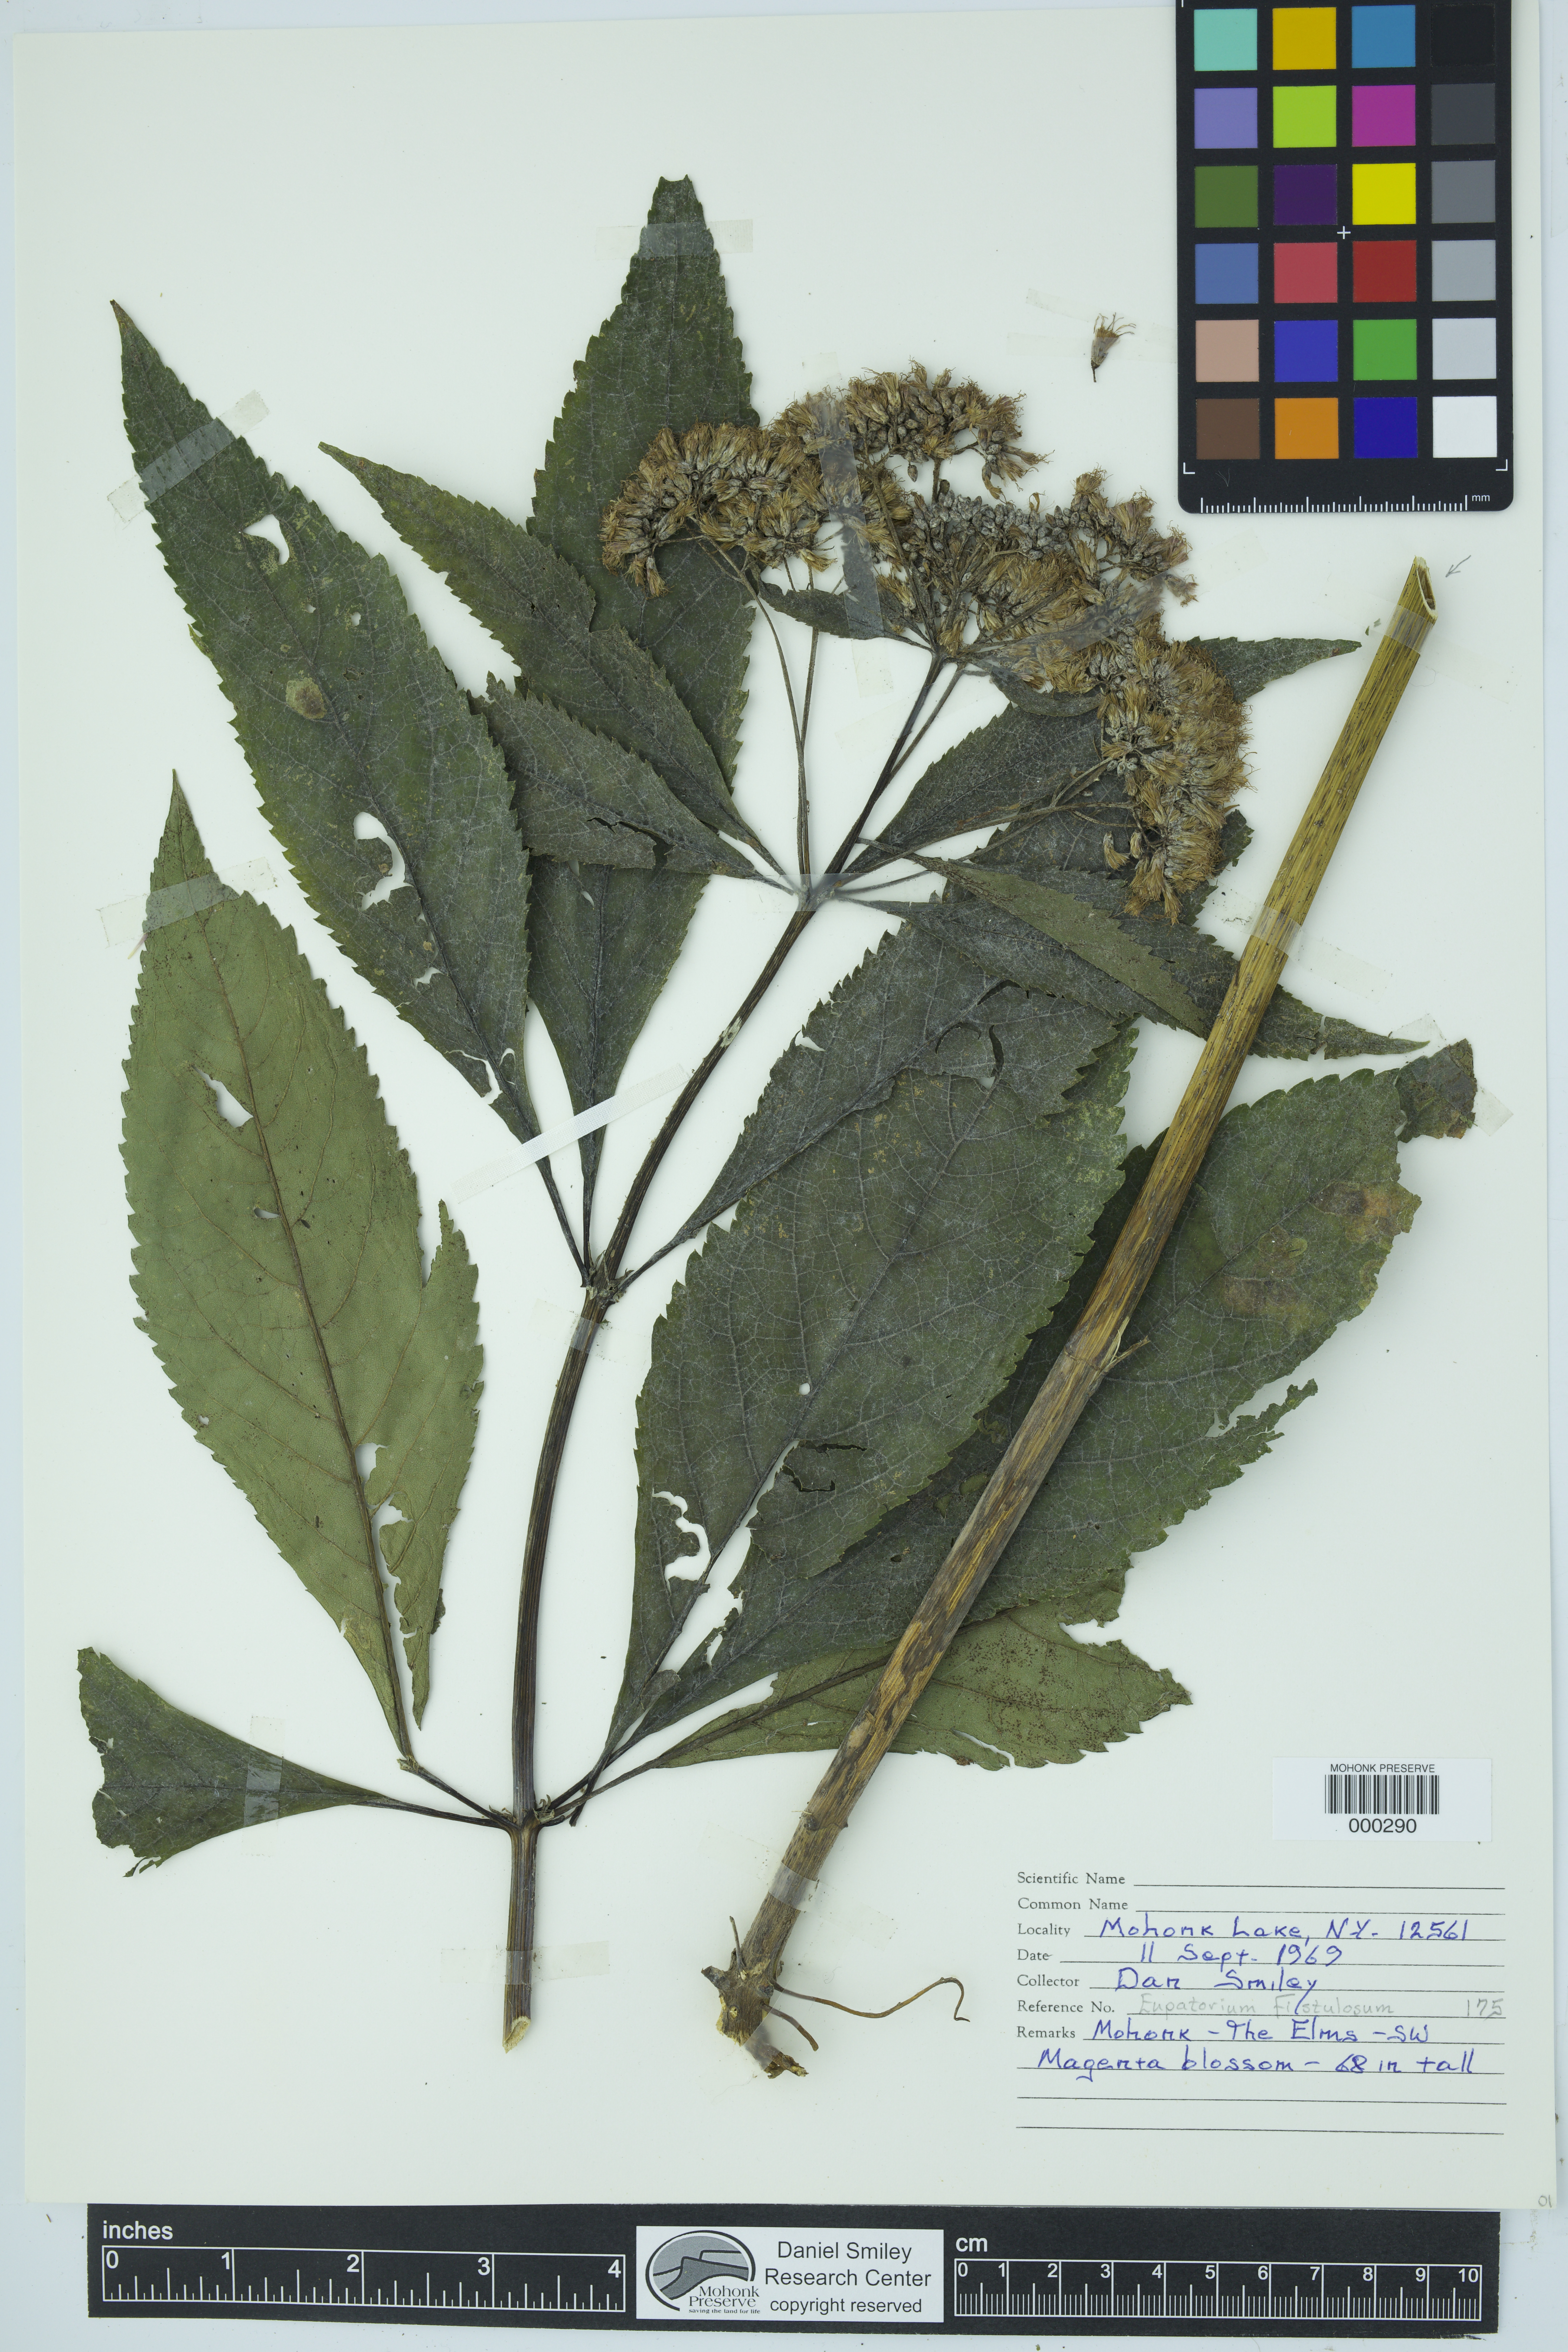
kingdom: Plantae
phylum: Tracheophyta
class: Magnoliopsida
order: Asterales
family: Asteraceae
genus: Eutrochium
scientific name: Eutrochium fistulosum
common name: Trumpetweed
